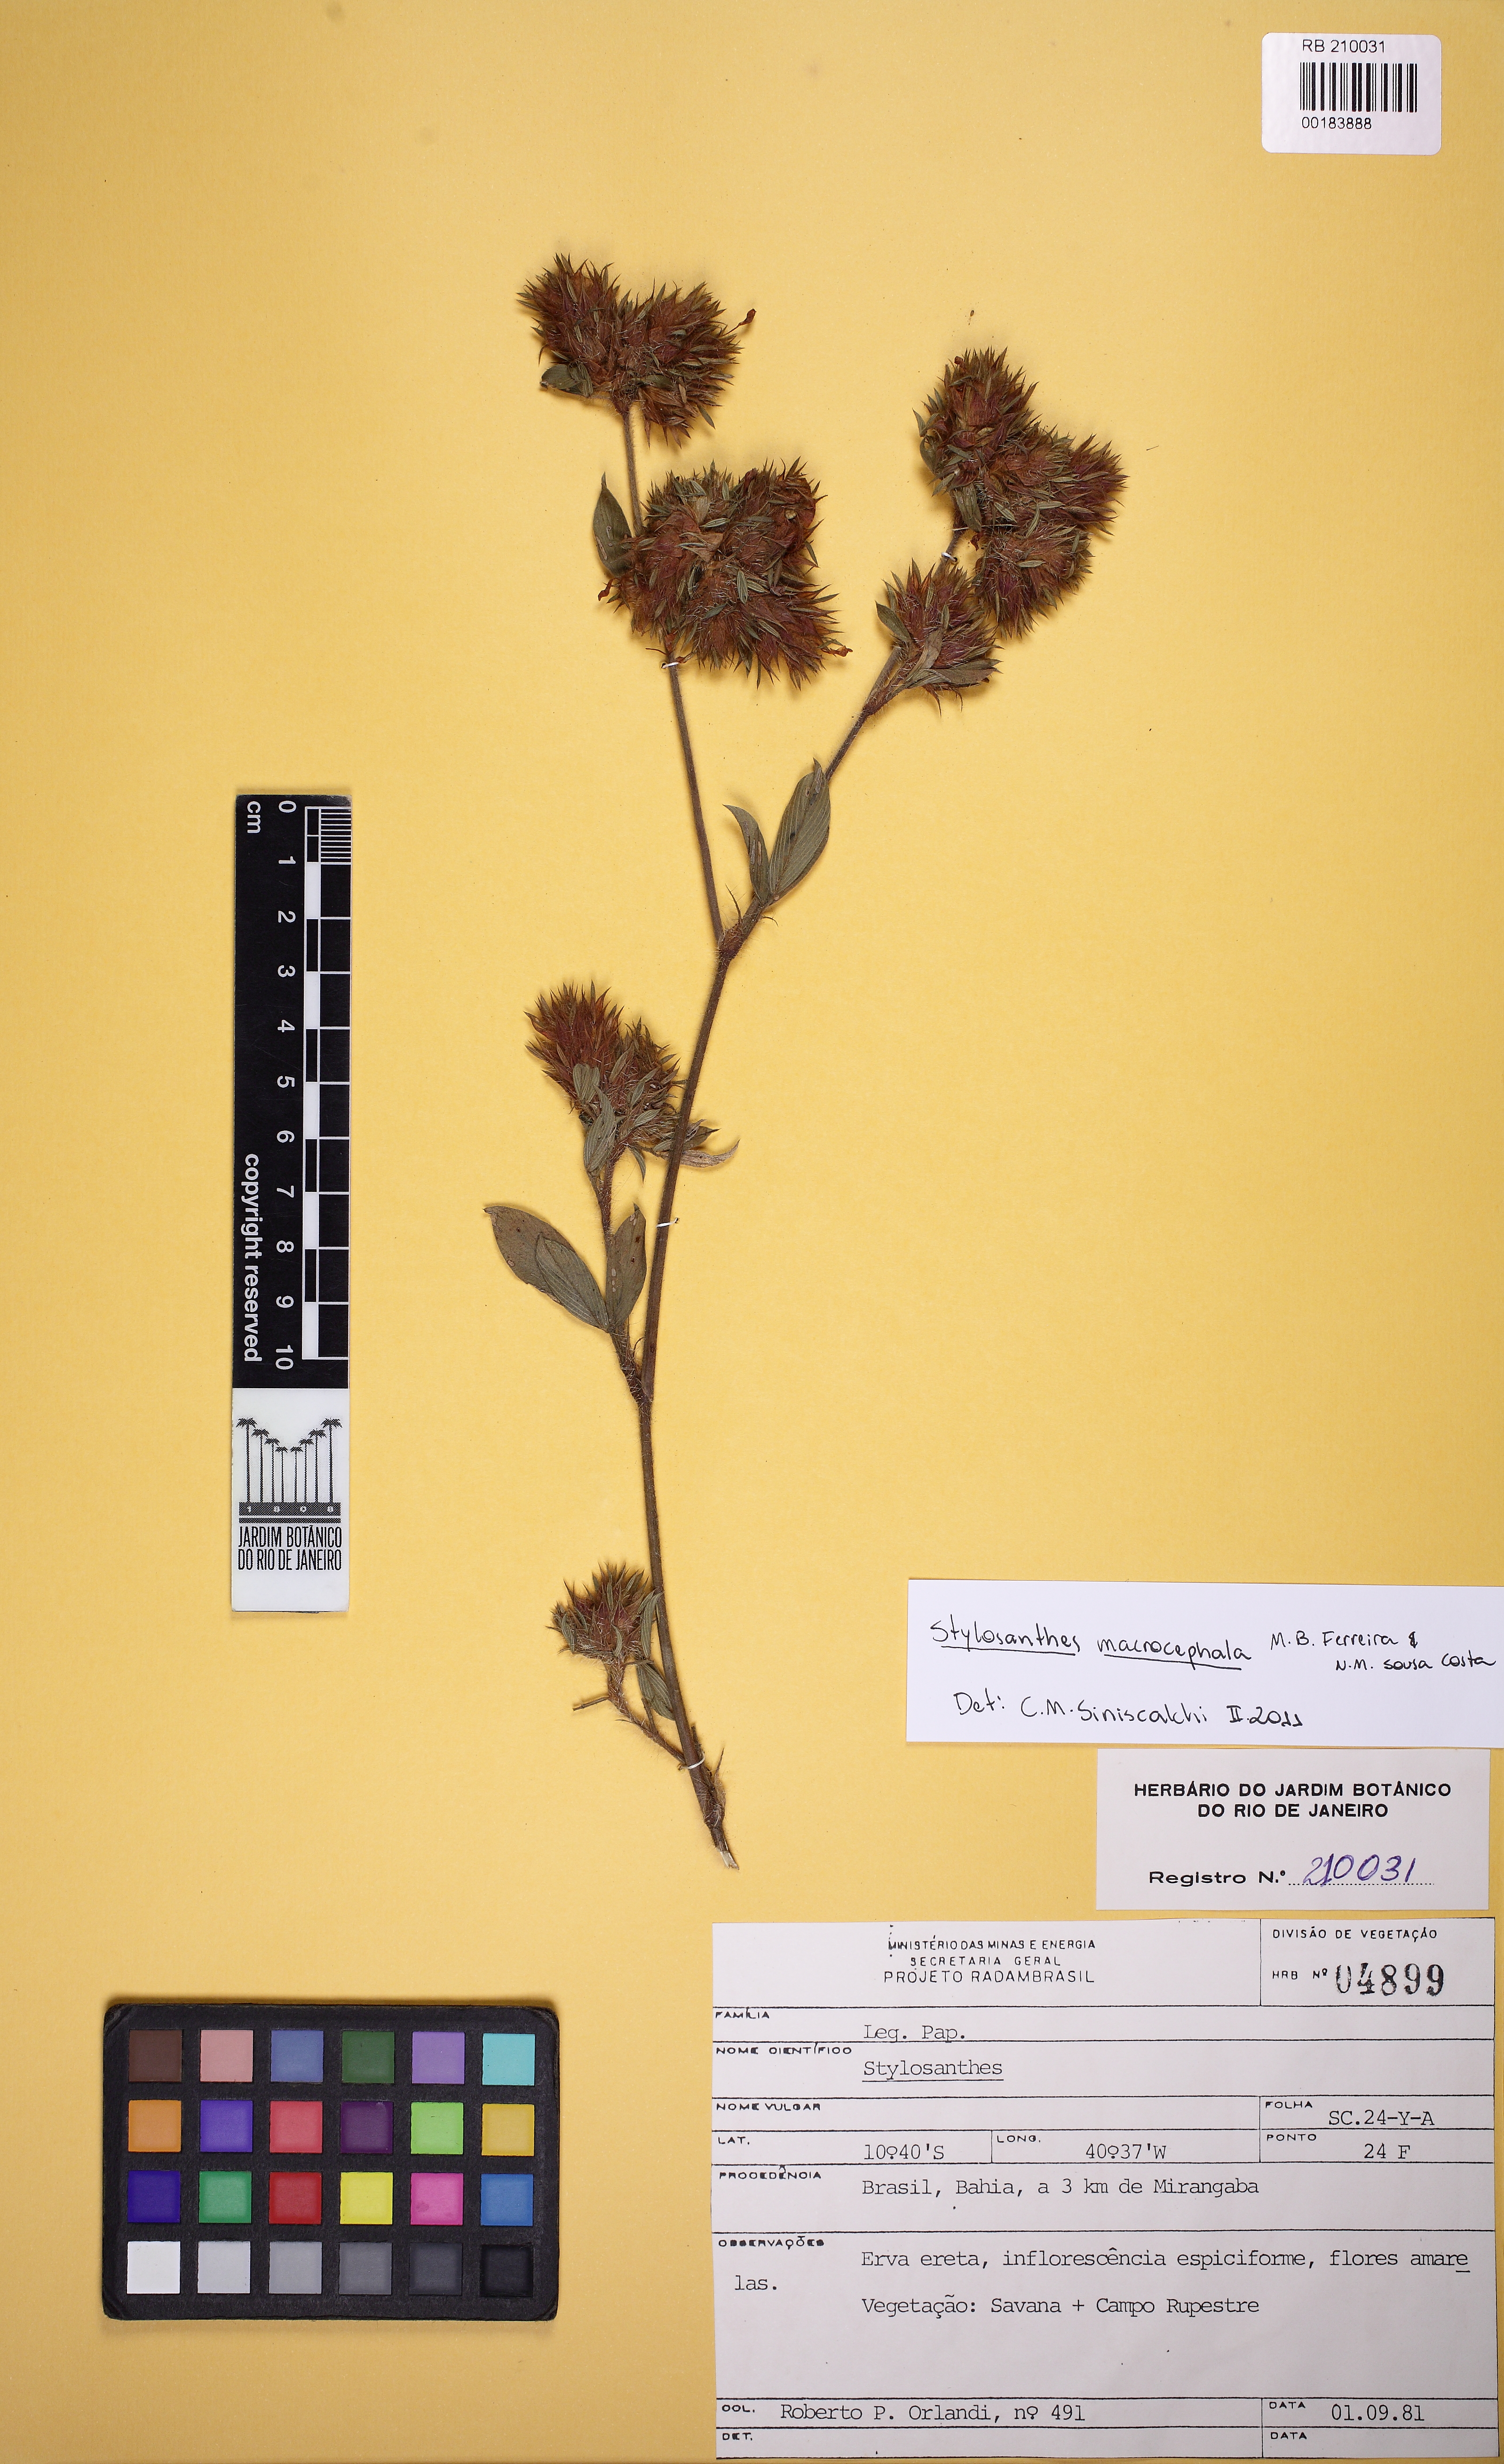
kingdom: Plantae
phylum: Tracheophyta
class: Magnoliopsida
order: Fabales
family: Fabaceae
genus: Stylosanthes
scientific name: Stylosanthes macrocephala
